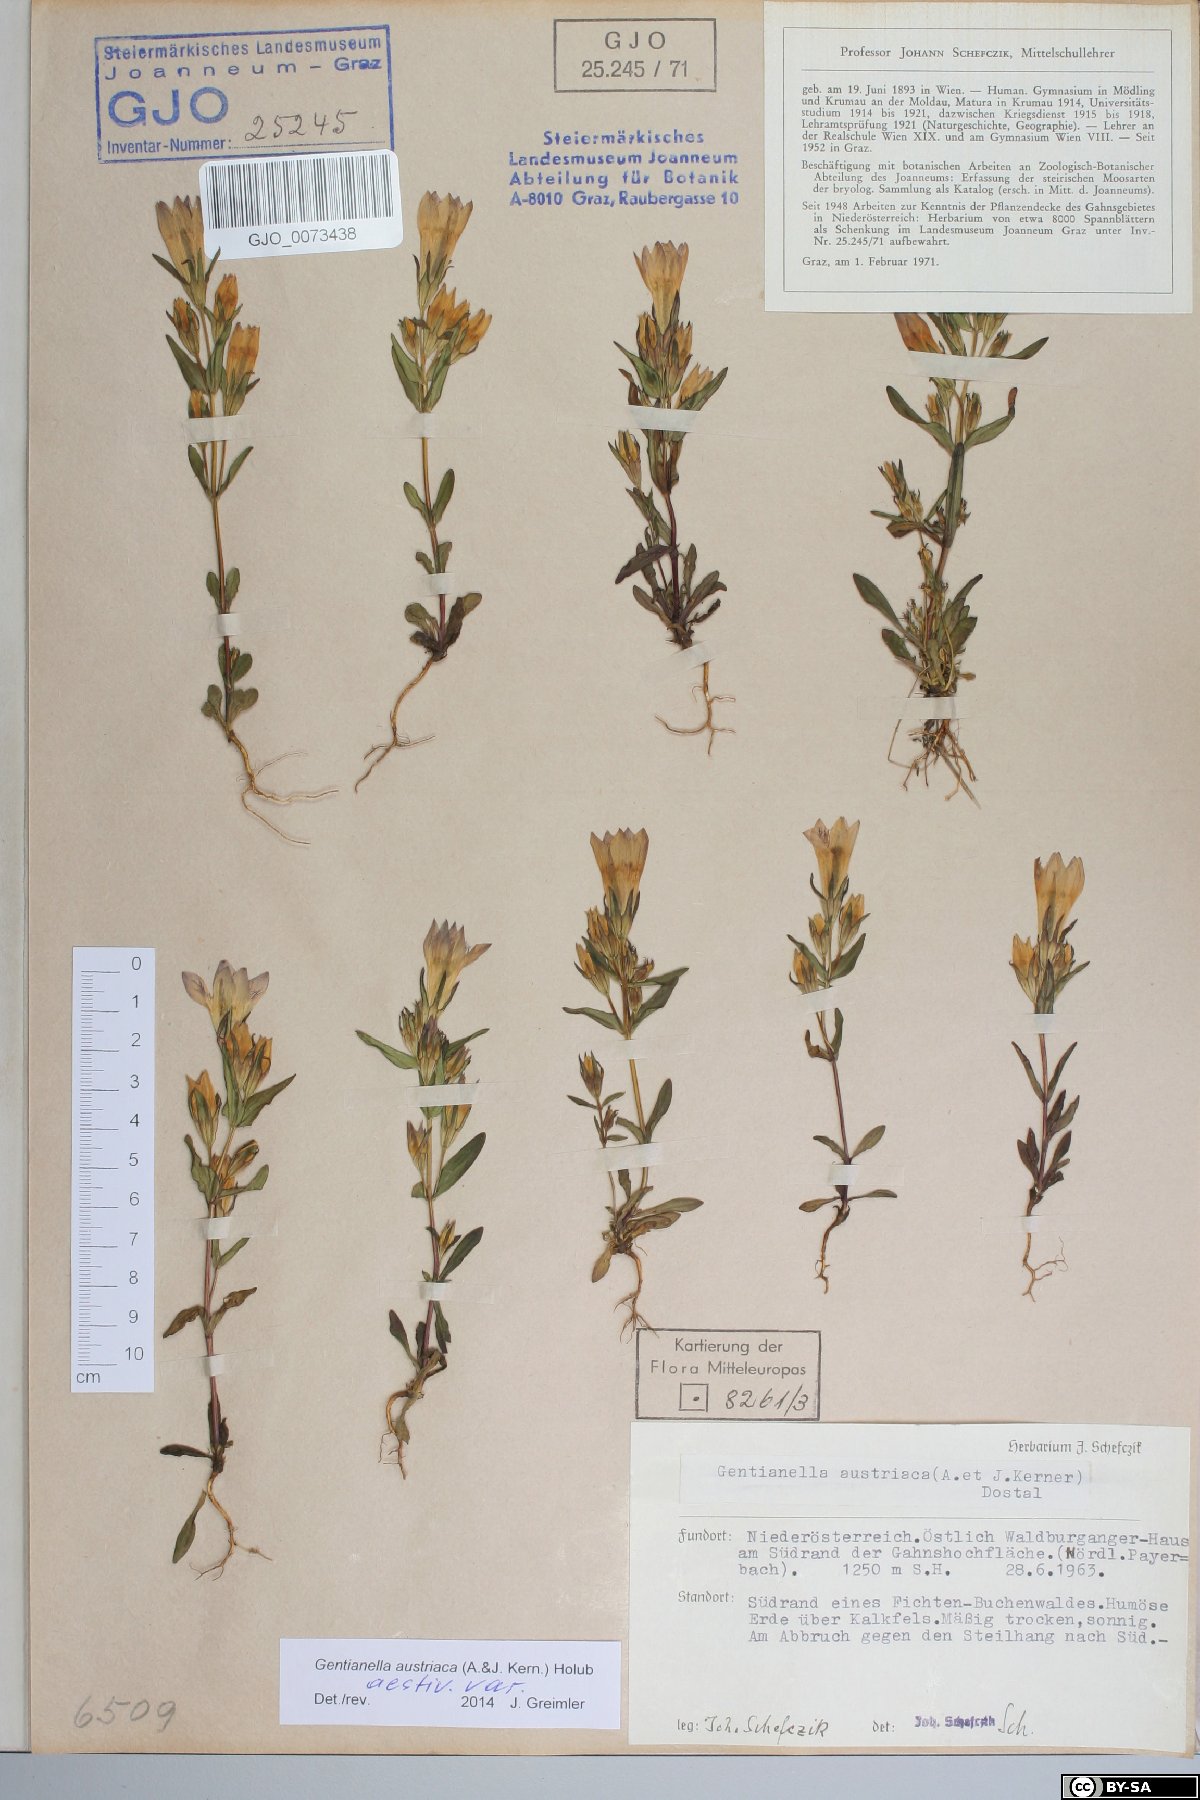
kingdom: Plantae
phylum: Tracheophyta
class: Magnoliopsida
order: Gentianales
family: Gentianaceae
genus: Gentianella
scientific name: Gentianella austriaca
